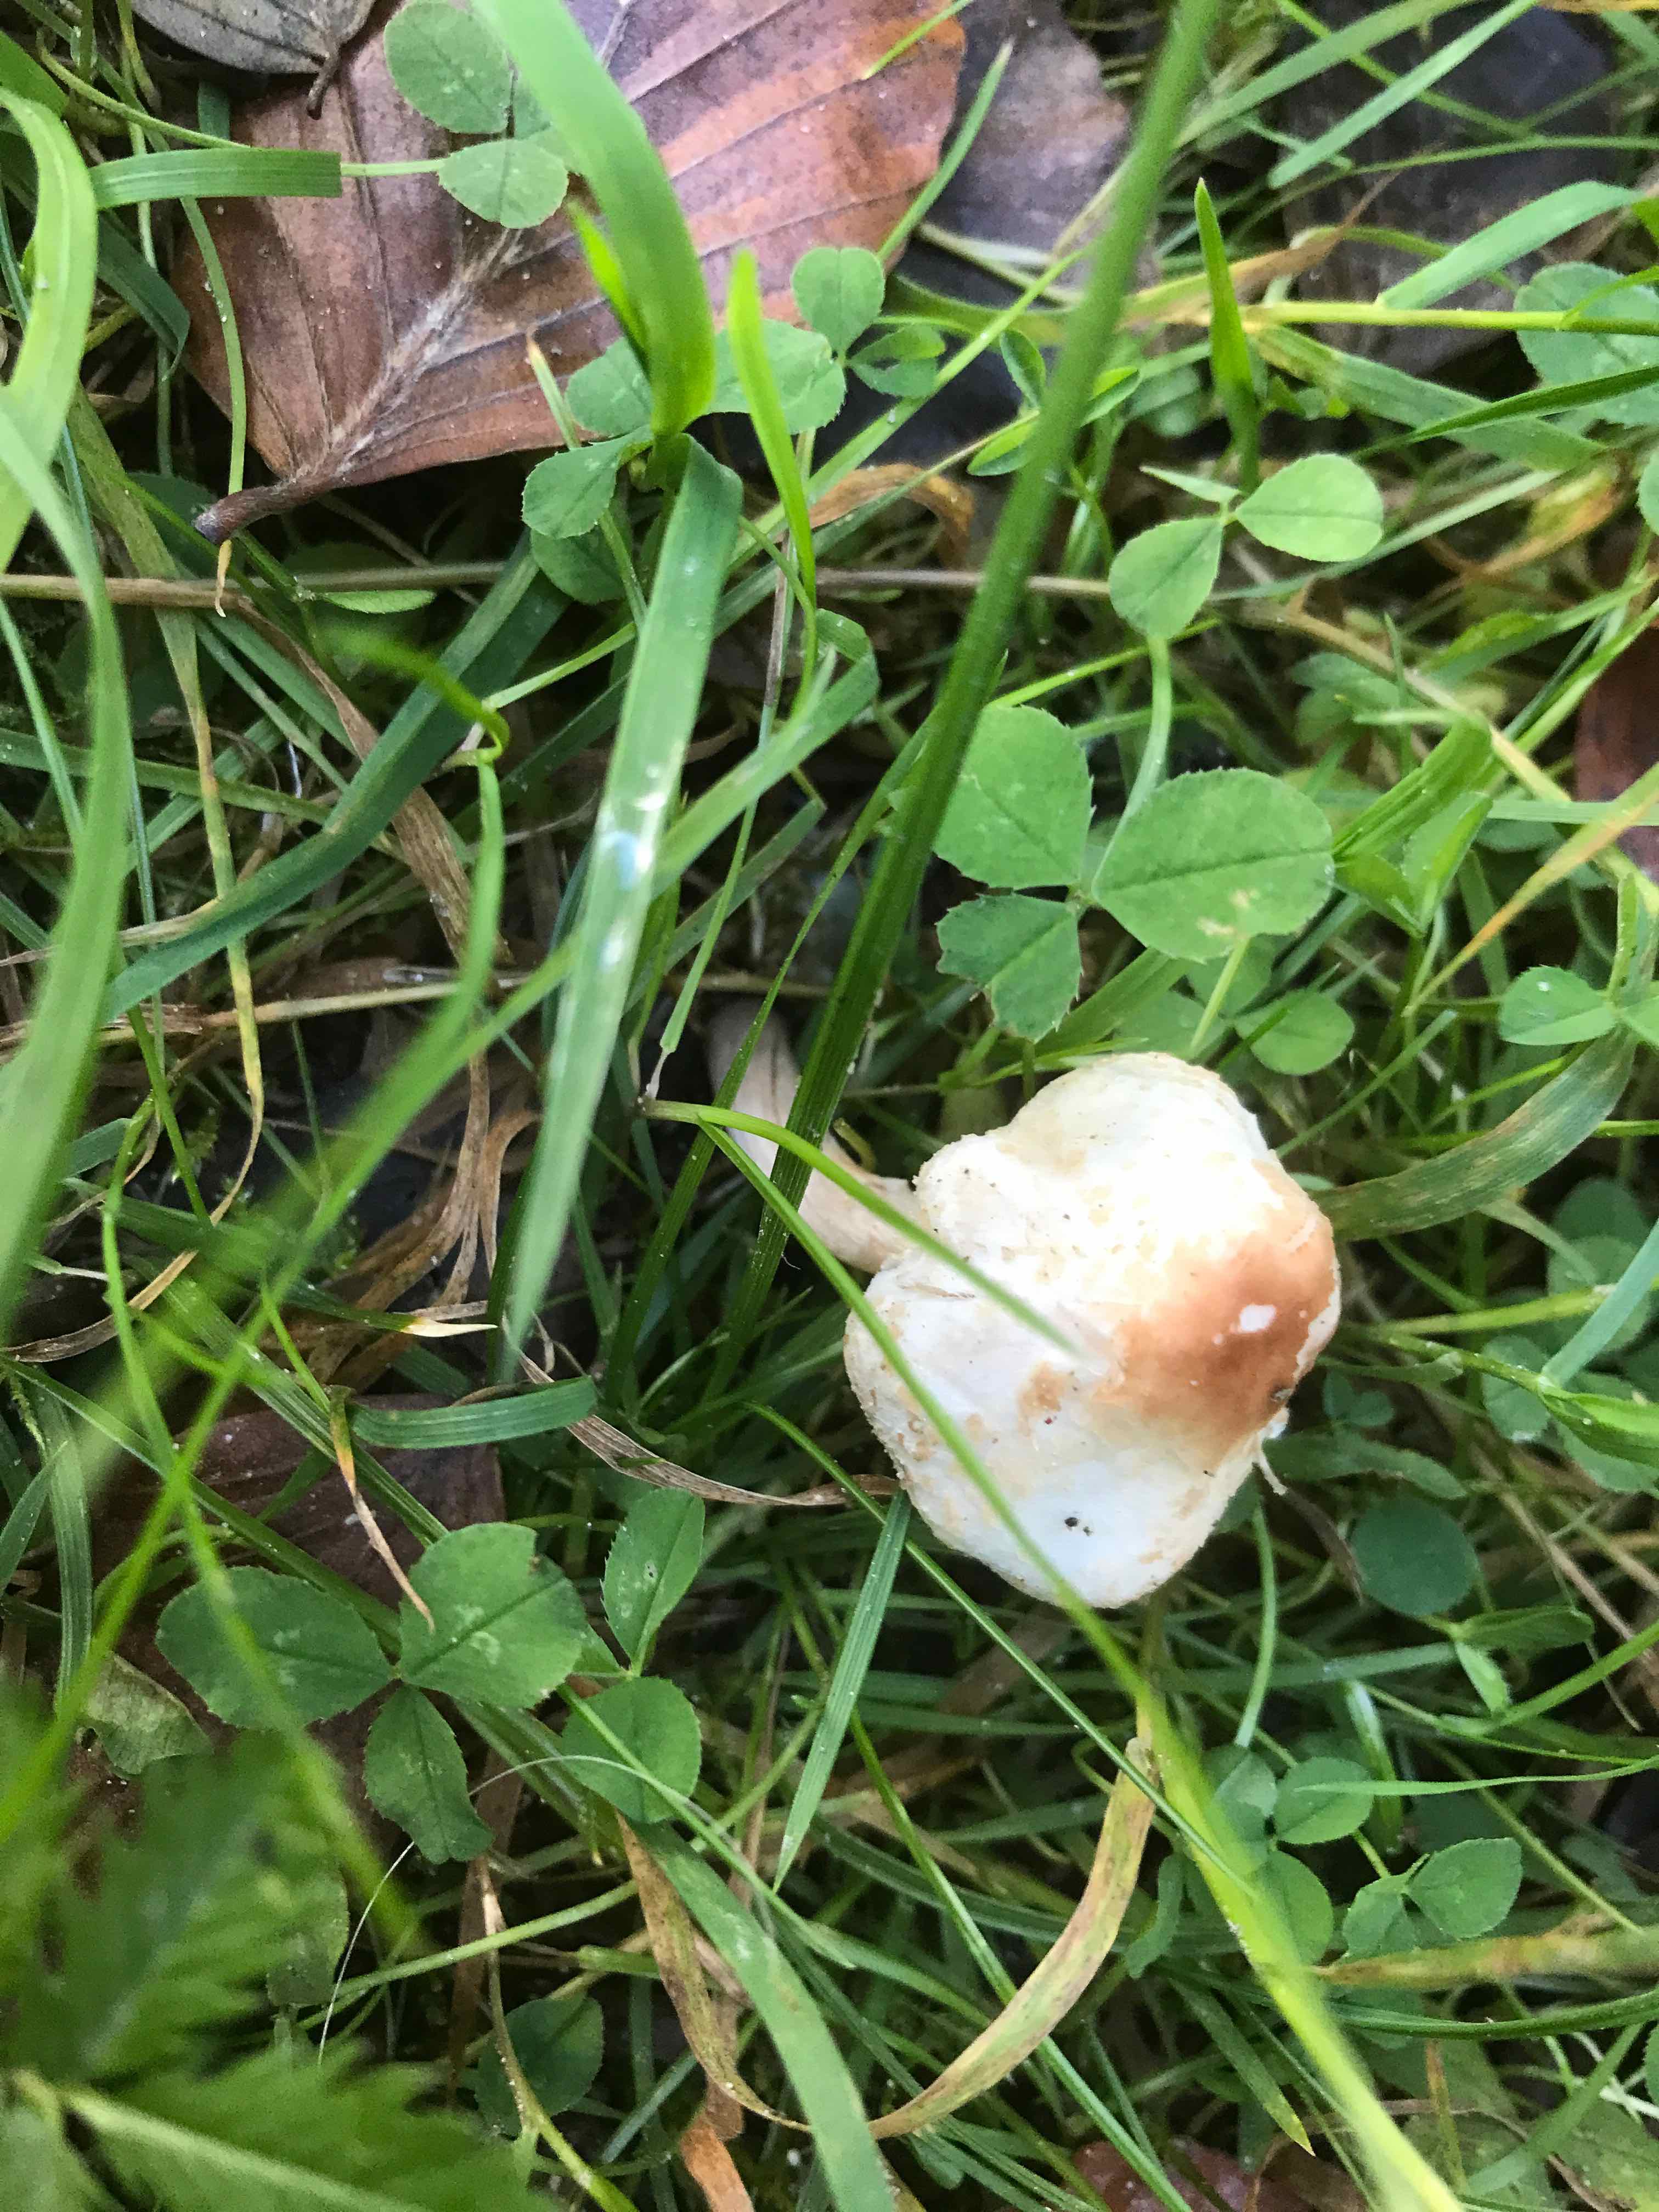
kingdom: Fungi
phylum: Basidiomycota
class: Agaricomycetes
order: Agaricales
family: Agaricaceae
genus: Lepiota
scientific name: Lepiota cristata
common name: stinkende parasolhat
